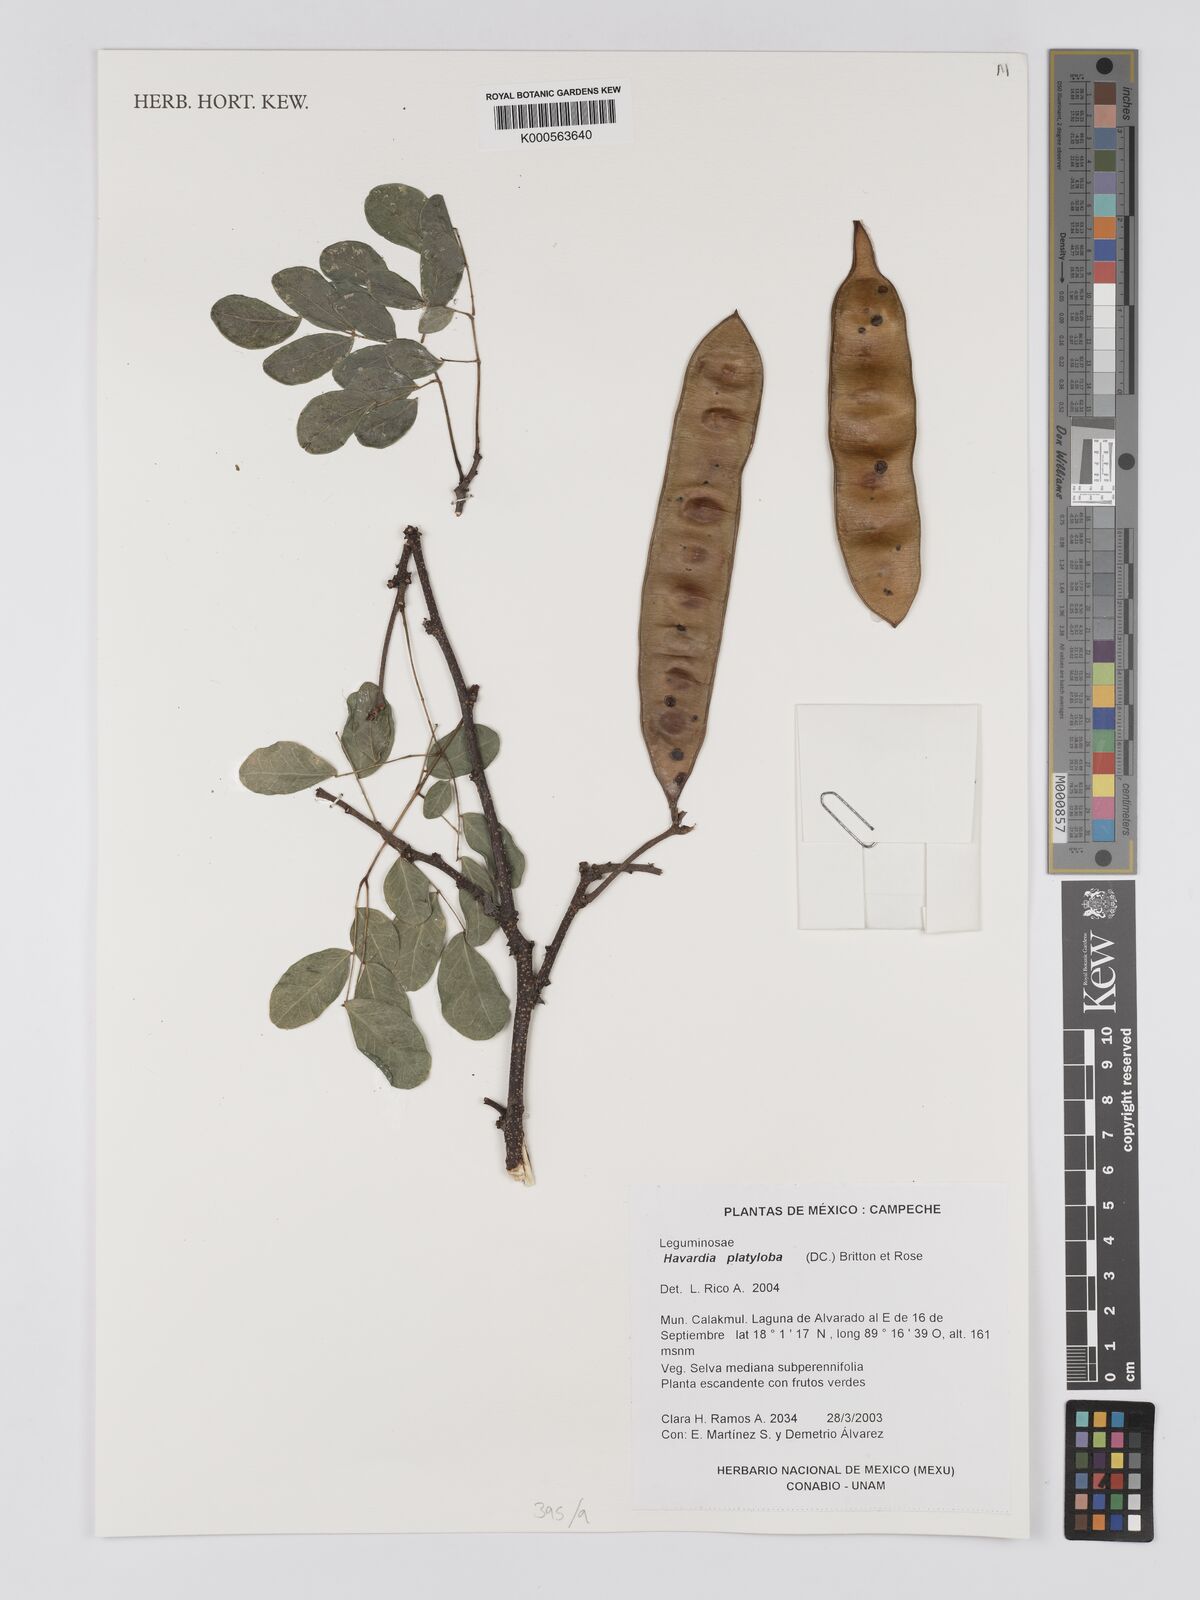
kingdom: Plantae
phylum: Tracheophyta
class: Magnoliopsida
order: Fabales
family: Fabaceae
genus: Havardia
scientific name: Havardia platyloba
